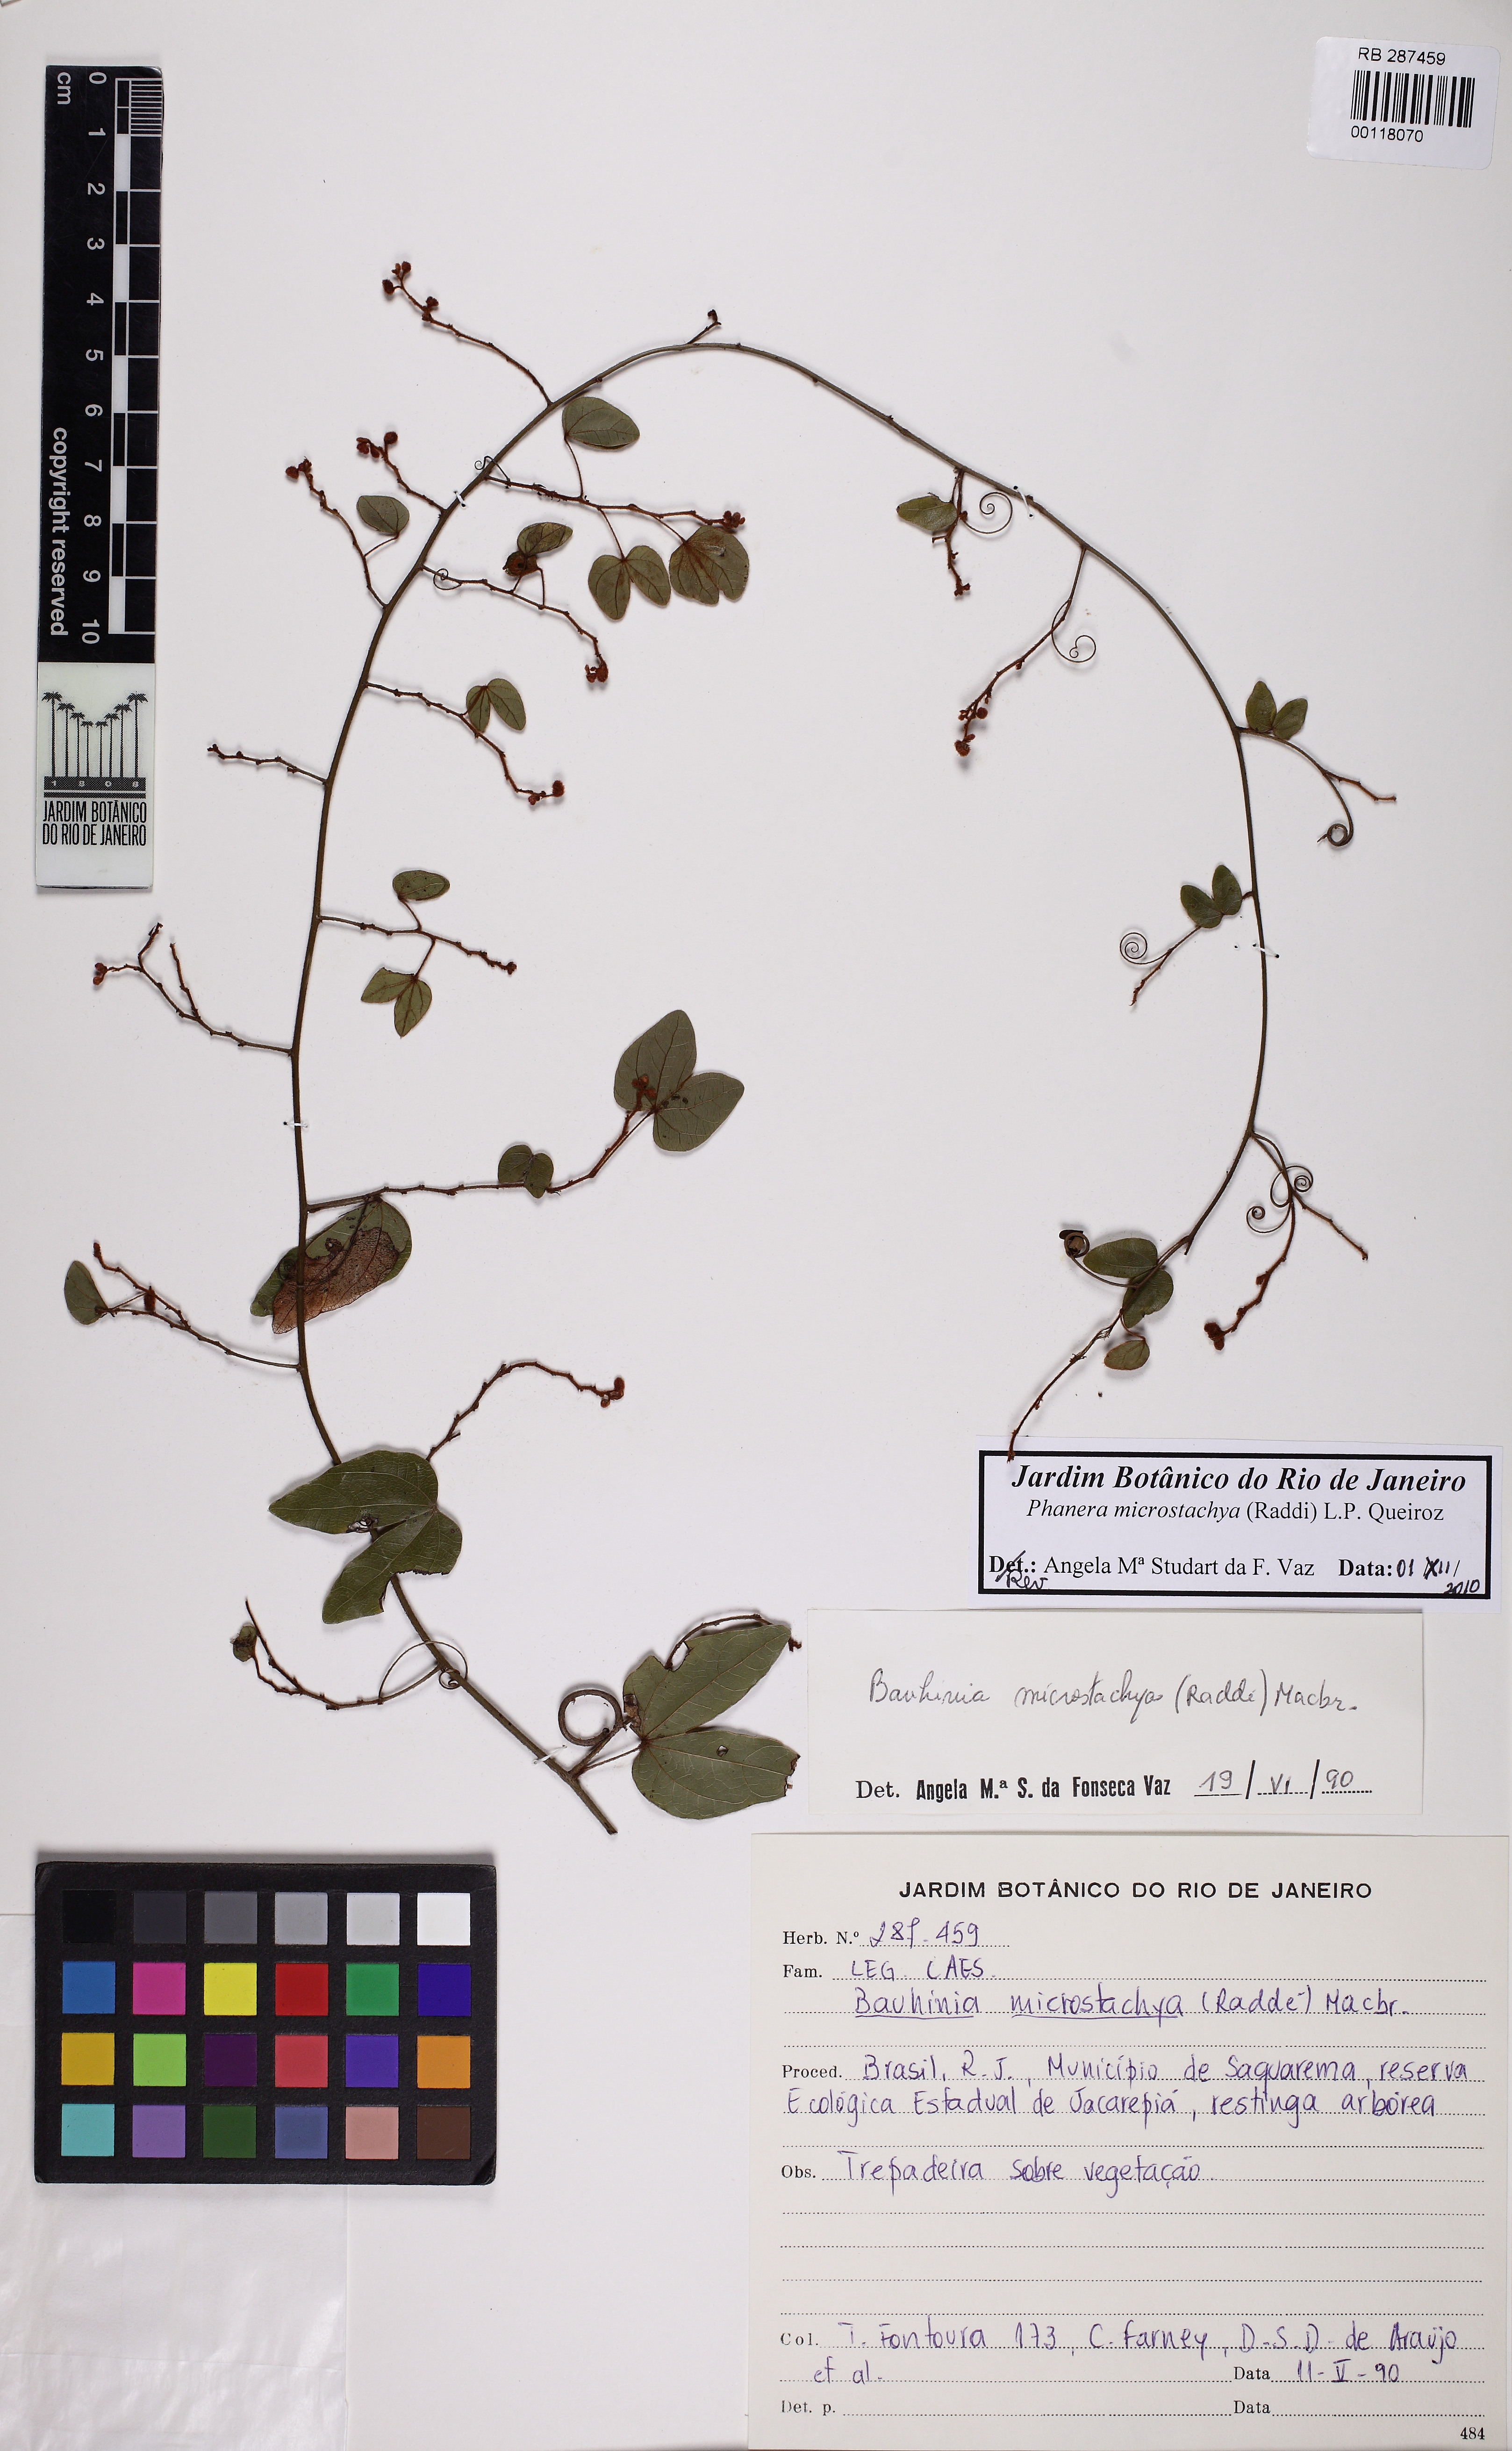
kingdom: Plantae
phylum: Tracheophyta
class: Magnoliopsida
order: Fabales
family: Fabaceae
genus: Schnella
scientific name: Schnella microstachya
